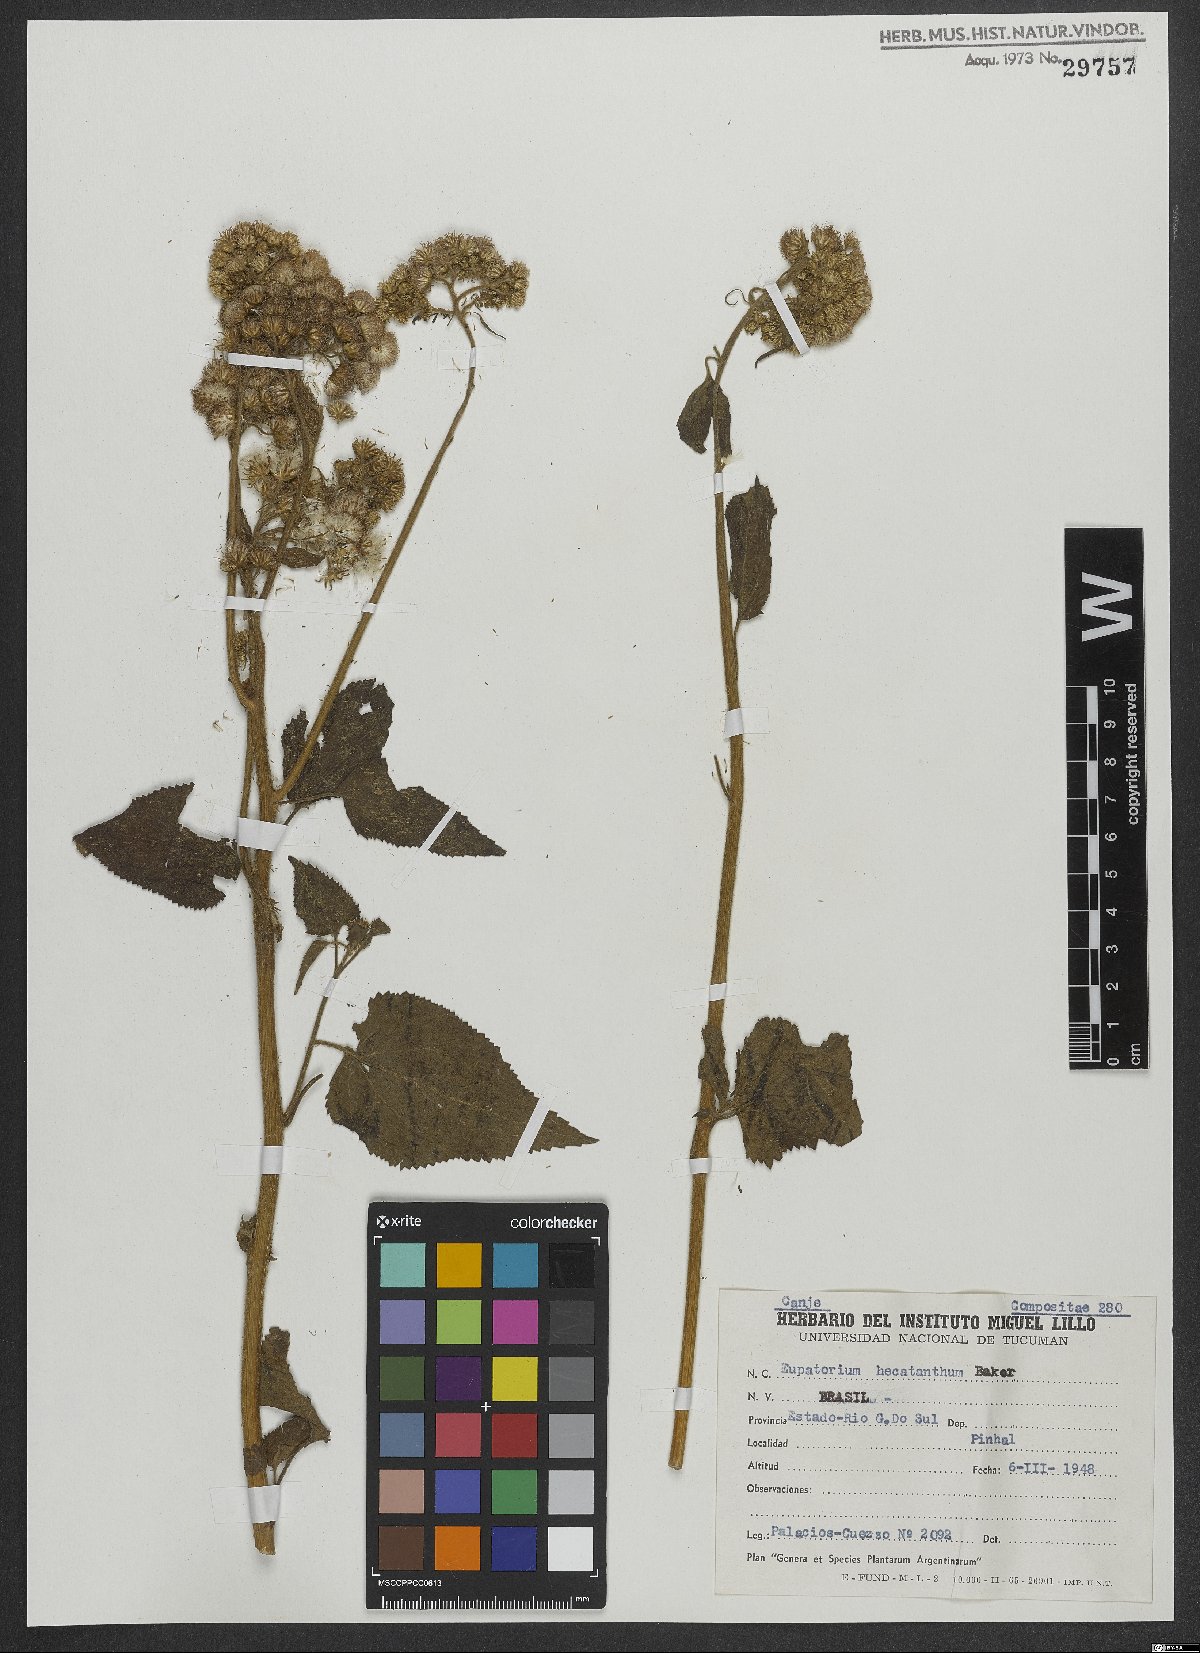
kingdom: Plantae
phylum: Tracheophyta
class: Magnoliopsida
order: Asterales
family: Asteraceae
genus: Praxelis
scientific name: Praxelis hecatantha
